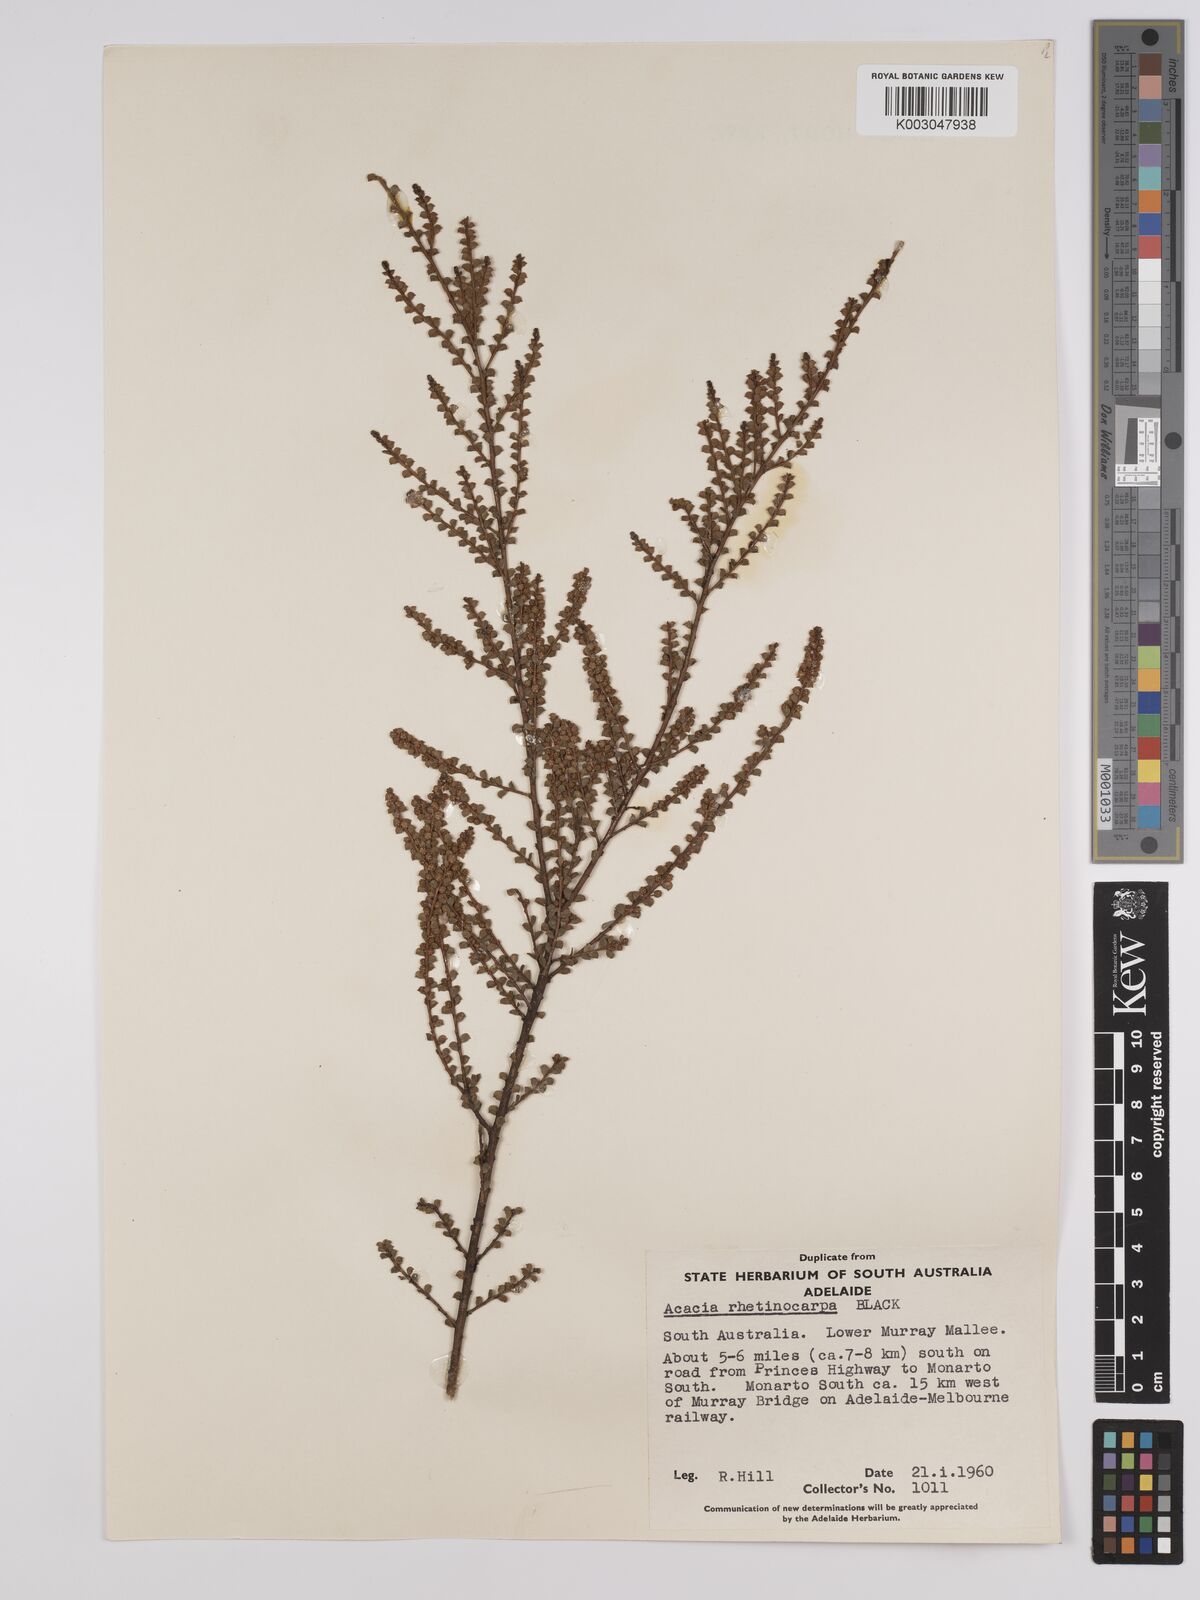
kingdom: Plantae
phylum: Tracheophyta
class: Magnoliopsida
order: Fabales
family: Fabaceae
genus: Acacia
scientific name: Acacia brachyclada
